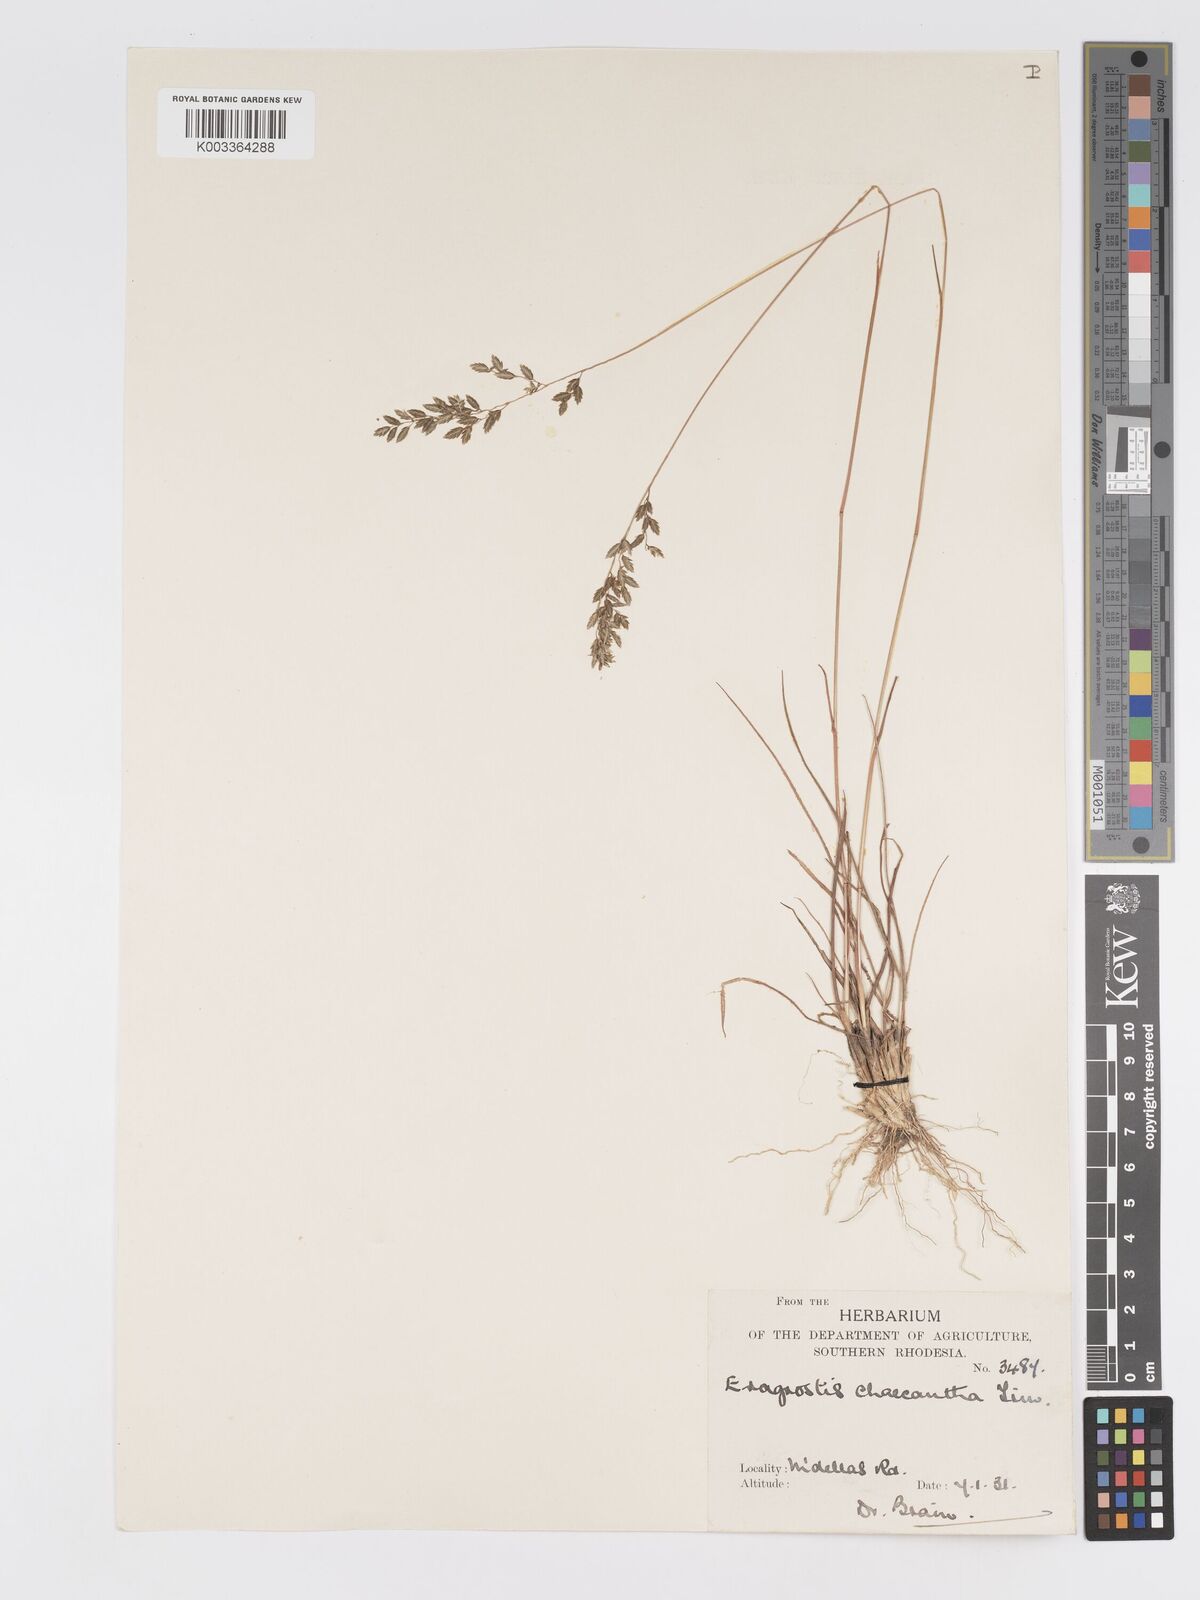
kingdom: Plantae
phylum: Tracheophyta
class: Liliopsida
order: Poales
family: Poaceae
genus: Eragrostis
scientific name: Eragrostis racemosa
